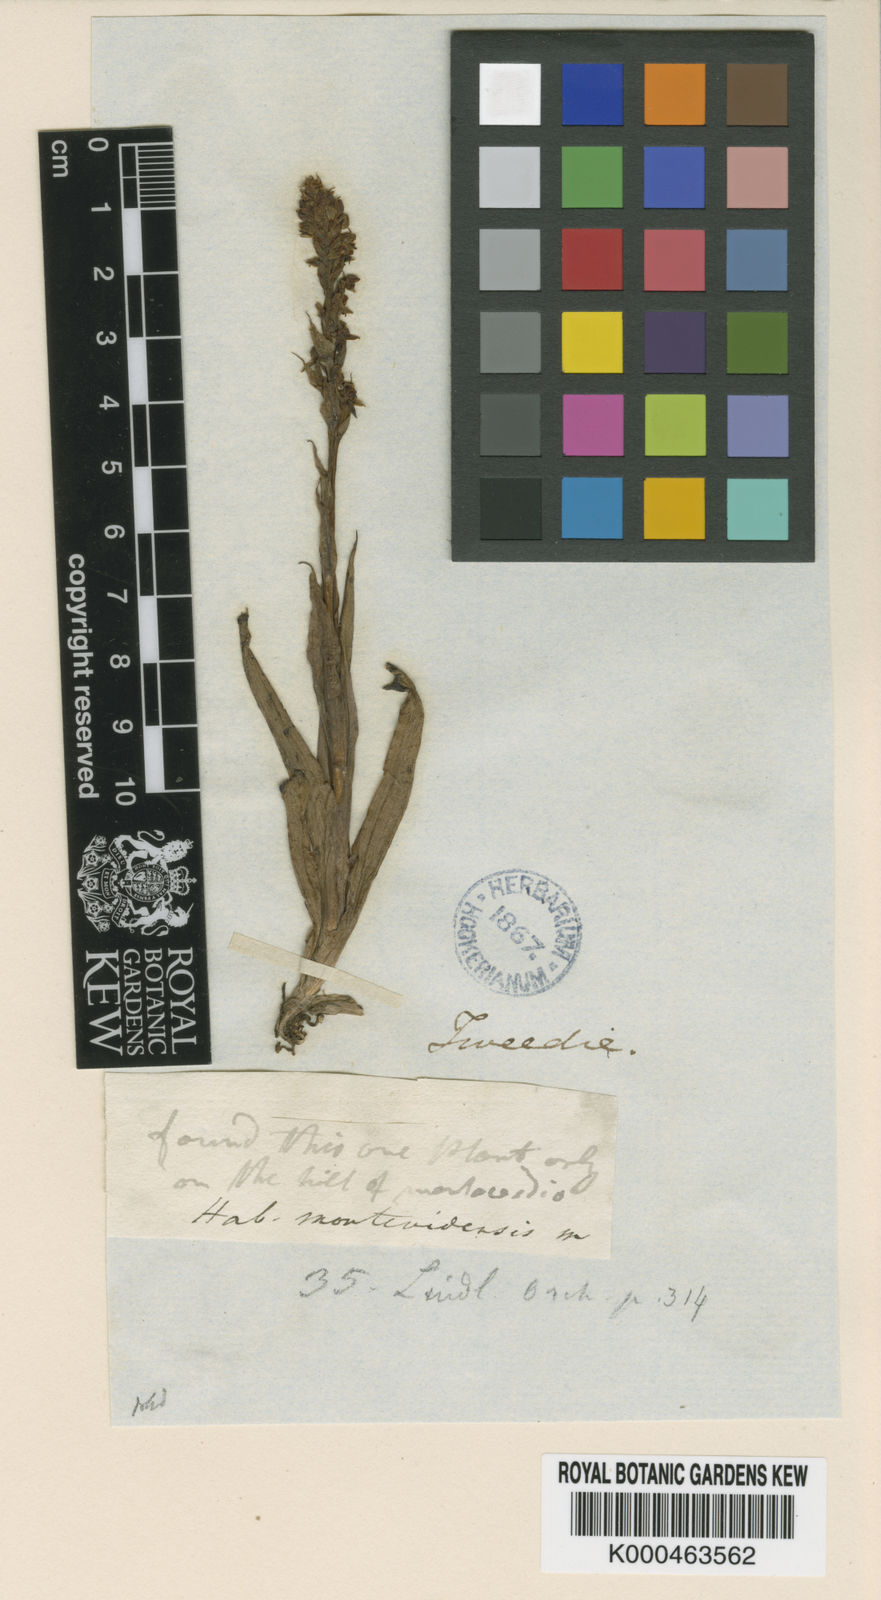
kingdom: Plantae
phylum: Tracheophyta
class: Liliopsida
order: Asparagales
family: Orchidaceae
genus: Habenaria
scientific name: Habenaria montevidensis
